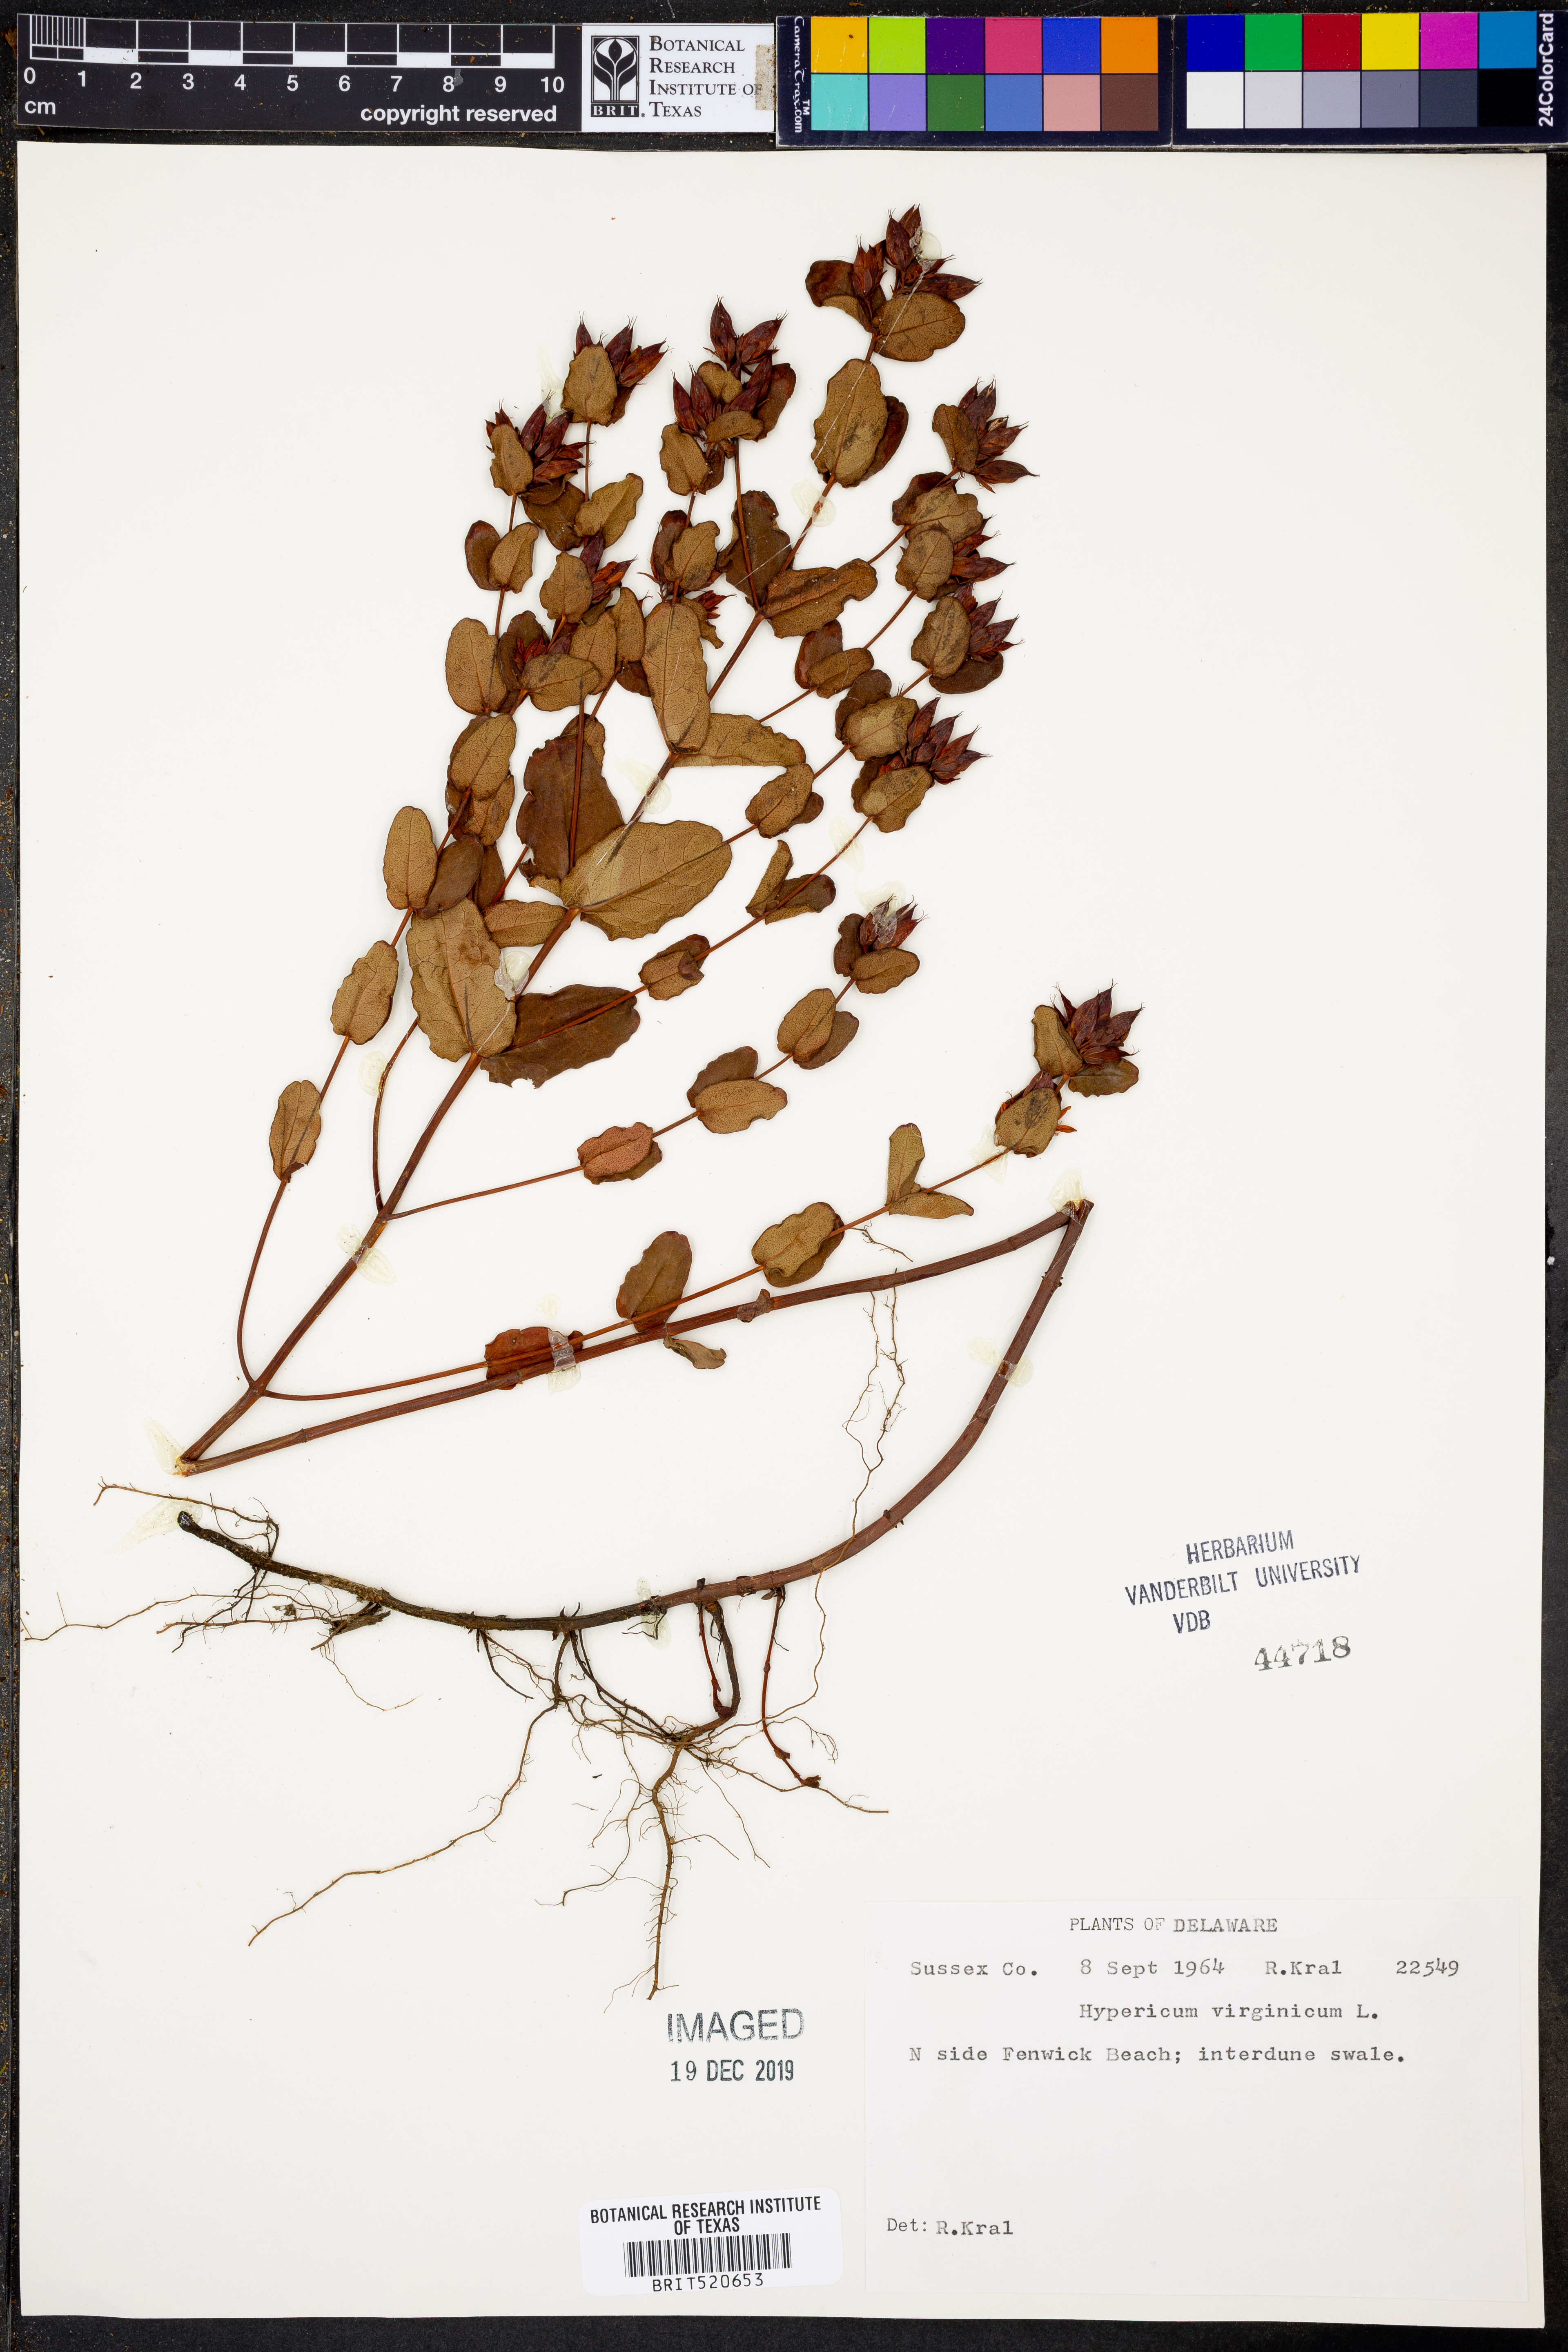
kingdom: Plantae
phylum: Tracheophyta
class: Magnoliopsida
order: Malpighiales
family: Hypericaceae
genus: Triadenum
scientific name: Triadenum virginicum
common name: Marsh st. john's-wort
